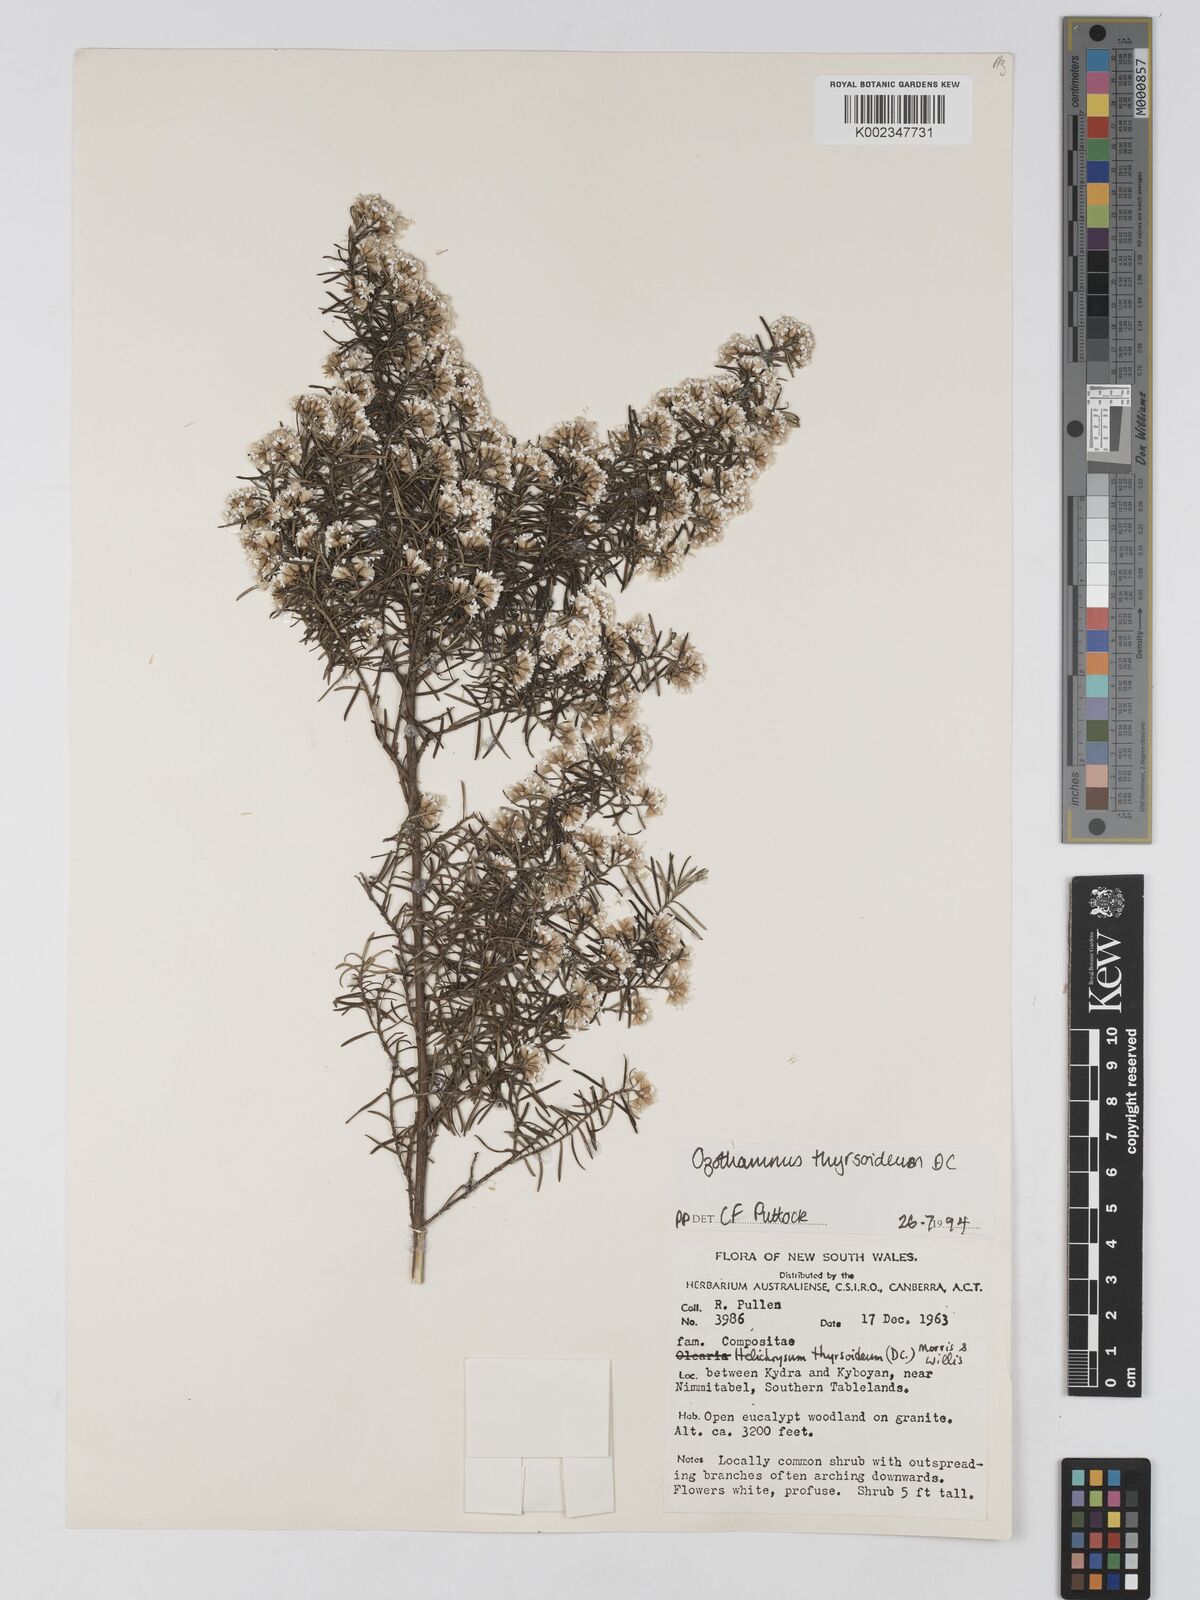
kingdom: Plantae
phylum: Tracheophyta
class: Magnoliopsida
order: Asterales
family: Asteraceae
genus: Ozothamnus
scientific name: Ozothamnus thyrsoideus
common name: Snow-in-summer
